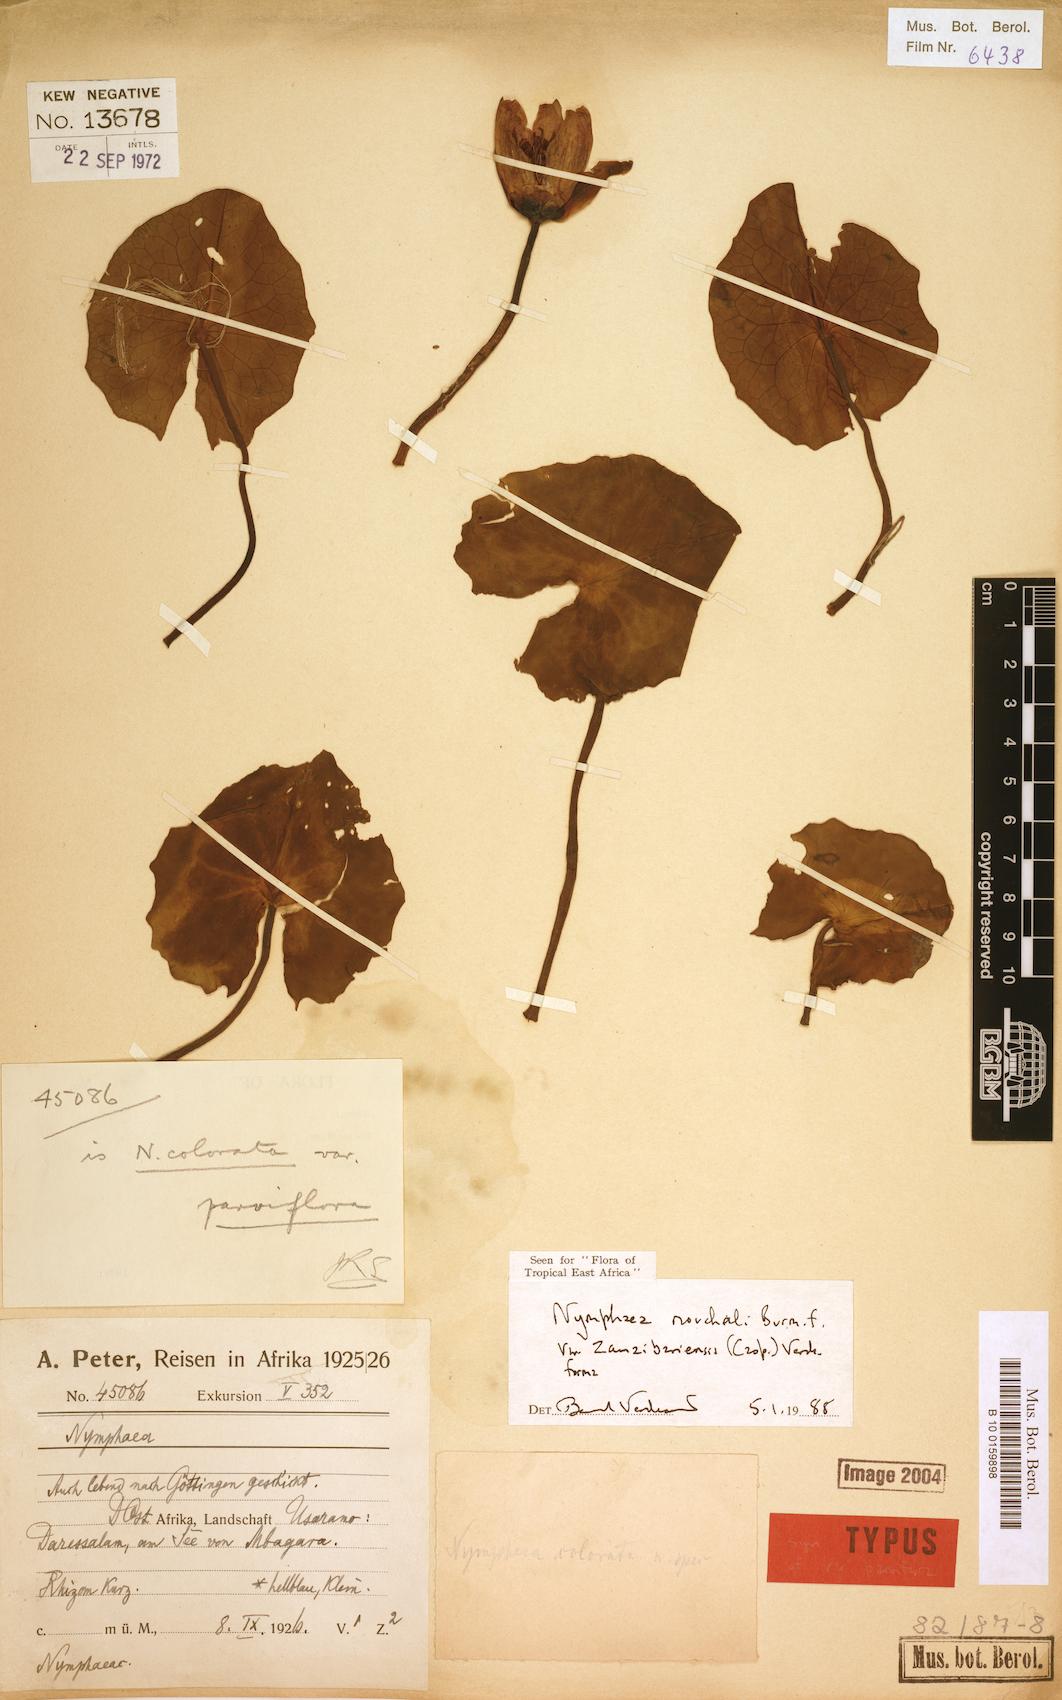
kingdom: Plantae
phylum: Tracheophyta
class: Magnoliopsida
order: Nymphaeales
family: Nymphaeaceae
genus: Nymphaea
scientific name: Nymphaea nouchali
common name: Blue lotus
